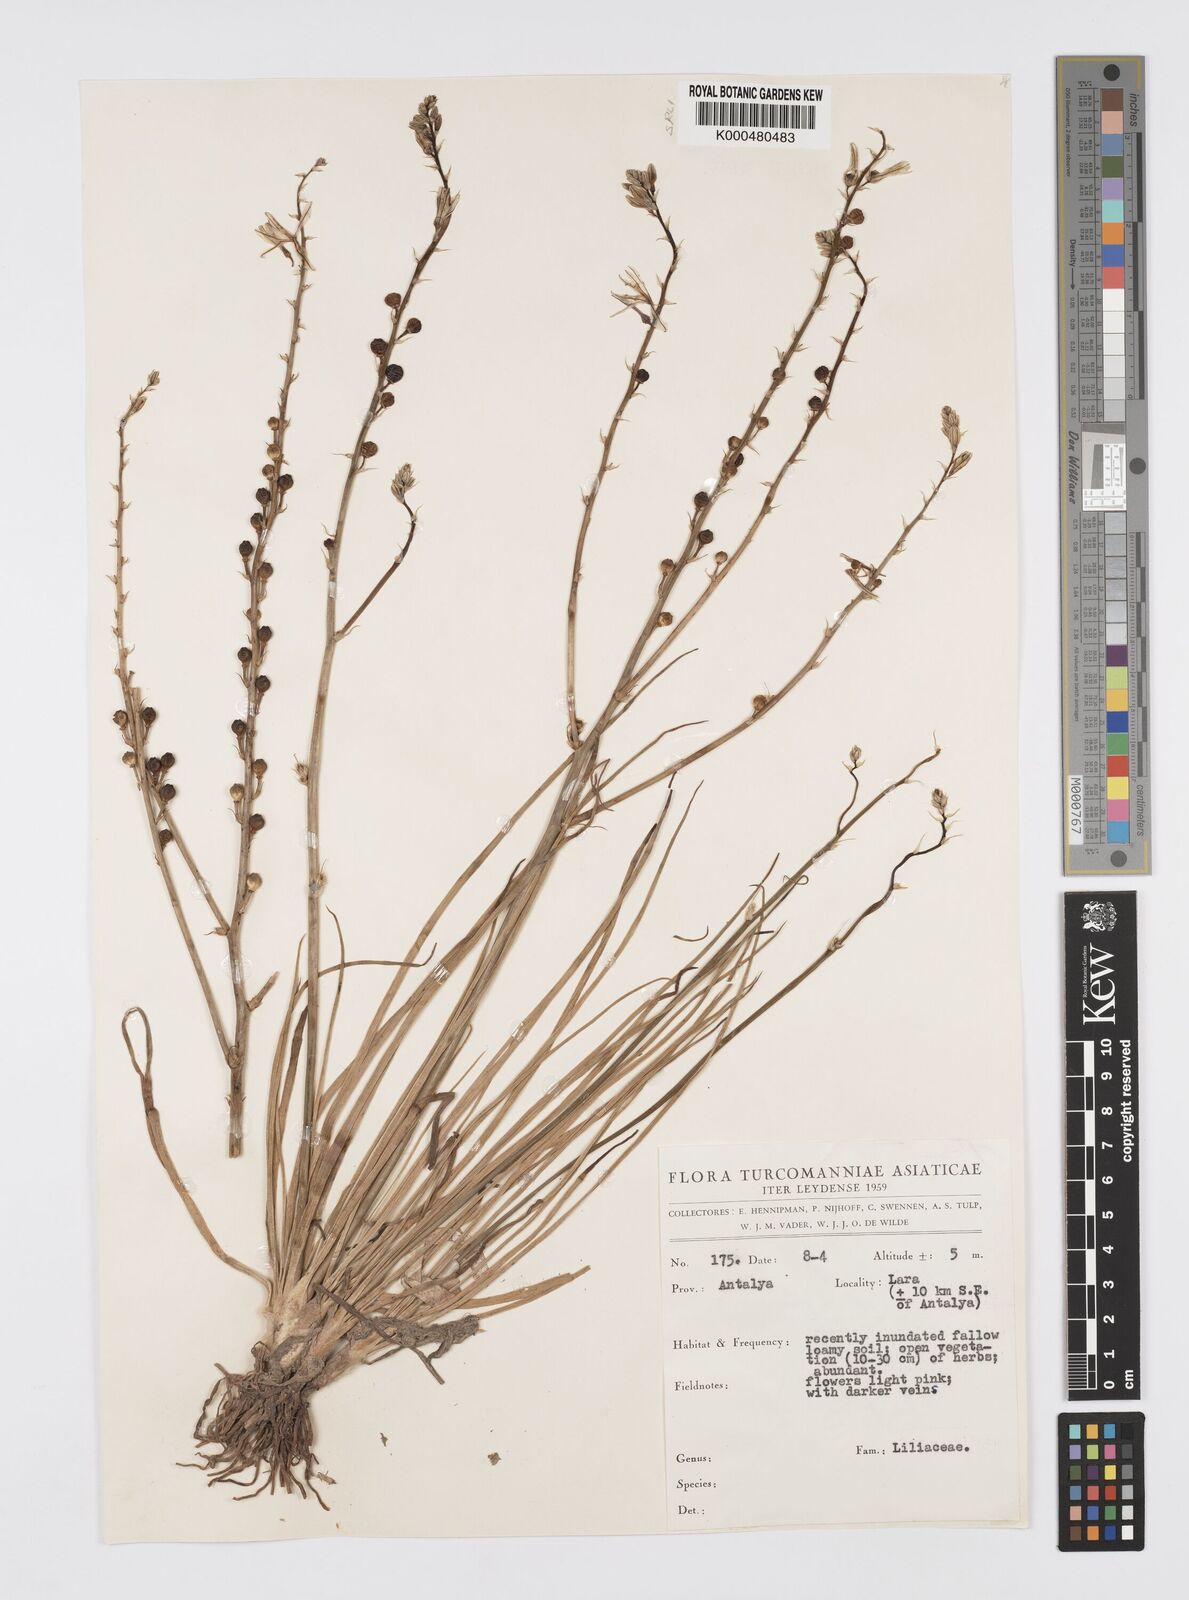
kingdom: Plantae
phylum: Tracheophyta
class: Liliopsida
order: Asparagales
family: Asphodelaceae
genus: Asphodelus
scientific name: Asphodelus fistulosus
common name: Onionweed
